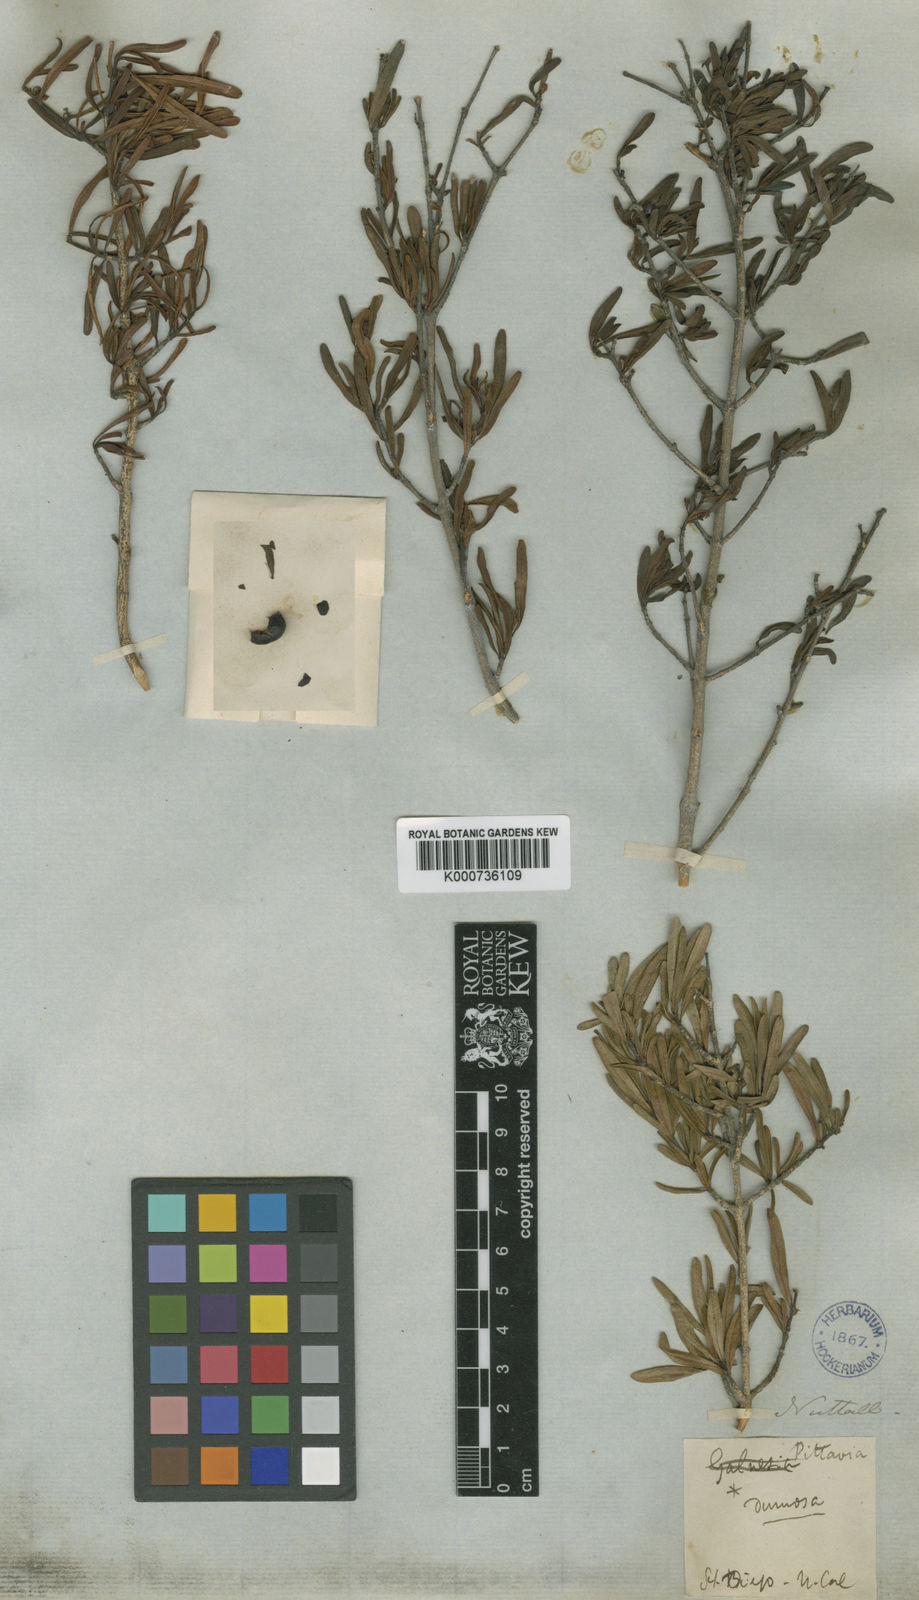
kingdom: Plantae
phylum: Tracheophyta
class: Magnoliopsida
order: Sapindales
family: Rutaceae
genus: Cneoridium
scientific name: Cneoridium
